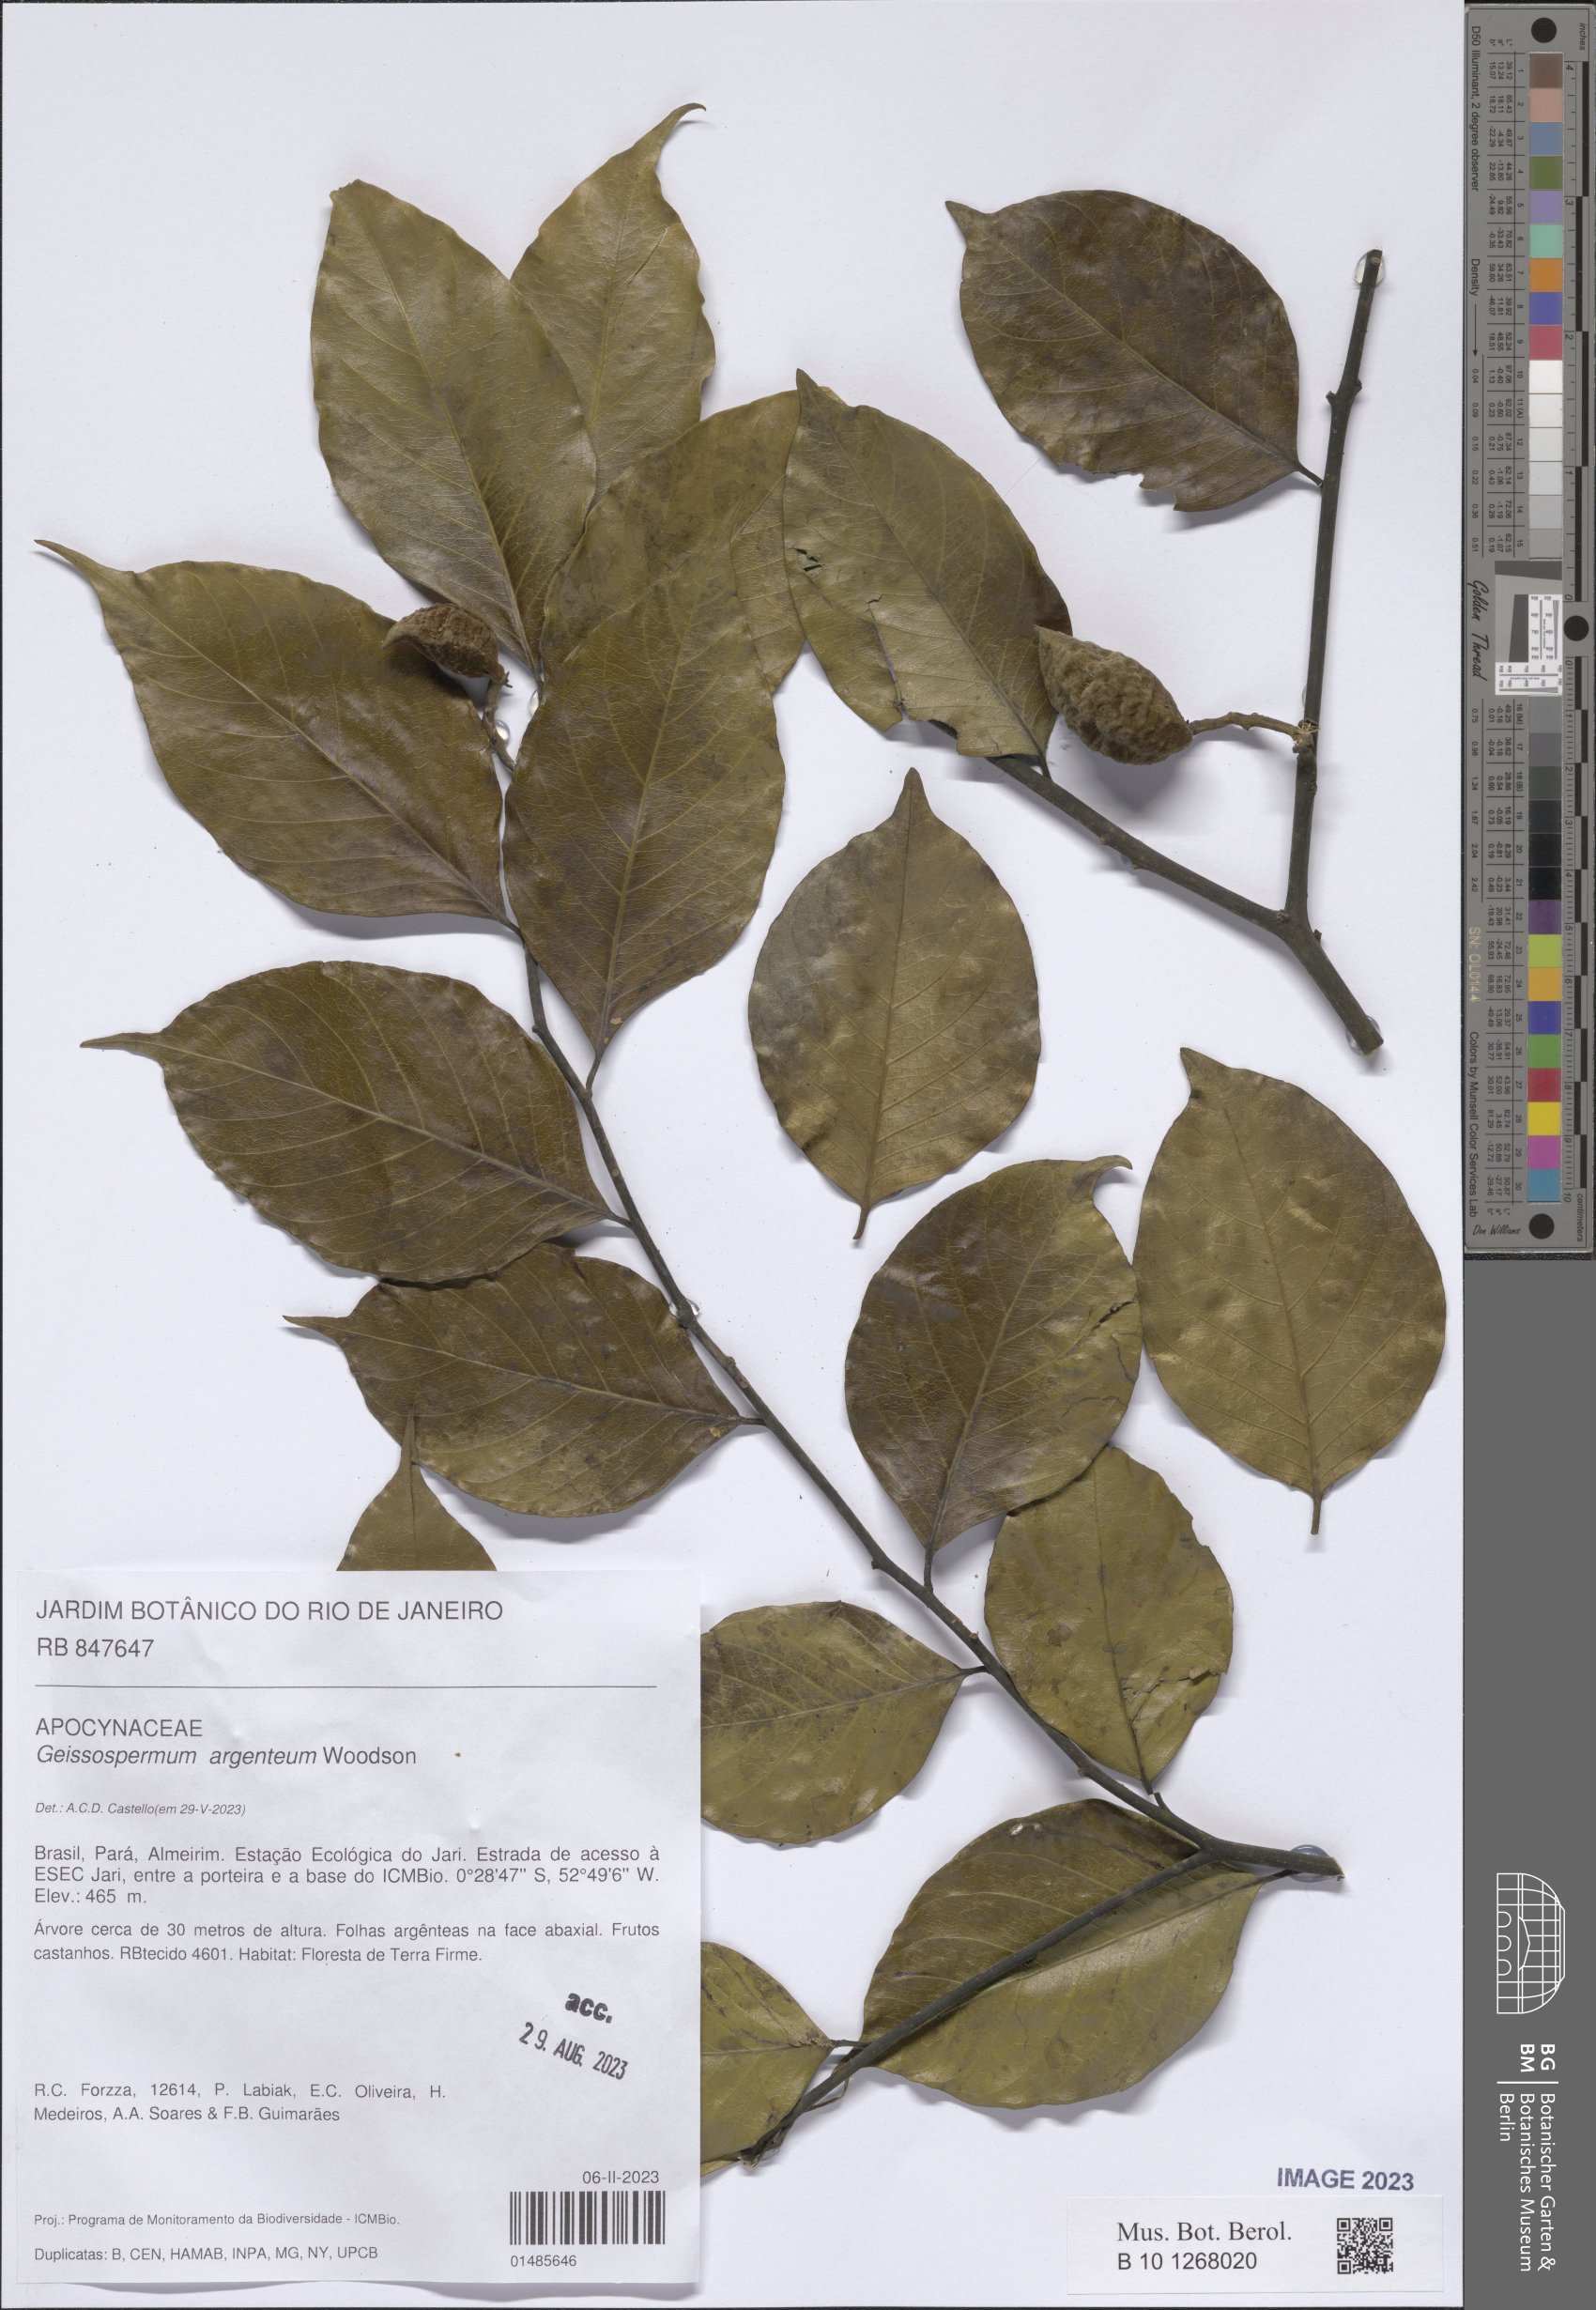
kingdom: Plantae
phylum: Tracheophyta
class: Magnoliopsida
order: Gentianales
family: Apocynaceae
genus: Geissospermum
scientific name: Geissospermum argenteum
